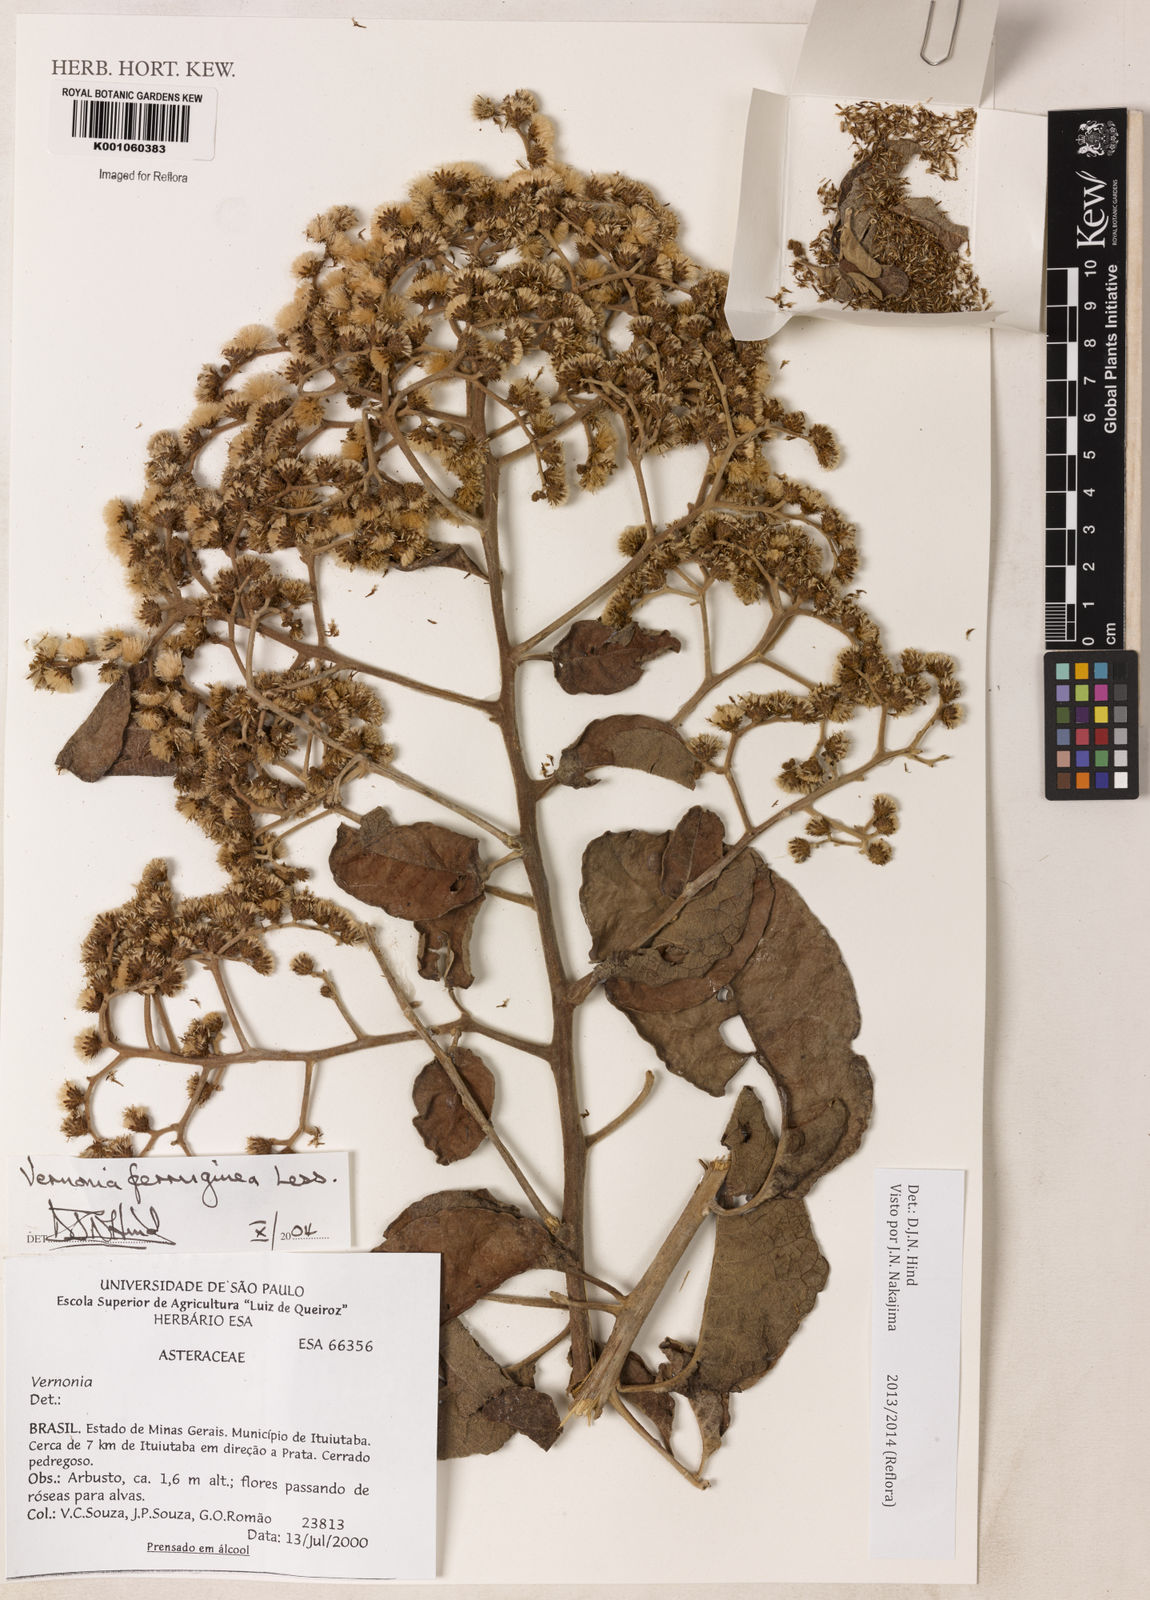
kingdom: Plantae
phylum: Tracheophyta
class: Magnoliopsida
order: Asterales
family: Asteraceae
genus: Vernonanthura
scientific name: Vernonanthura ferruginea
